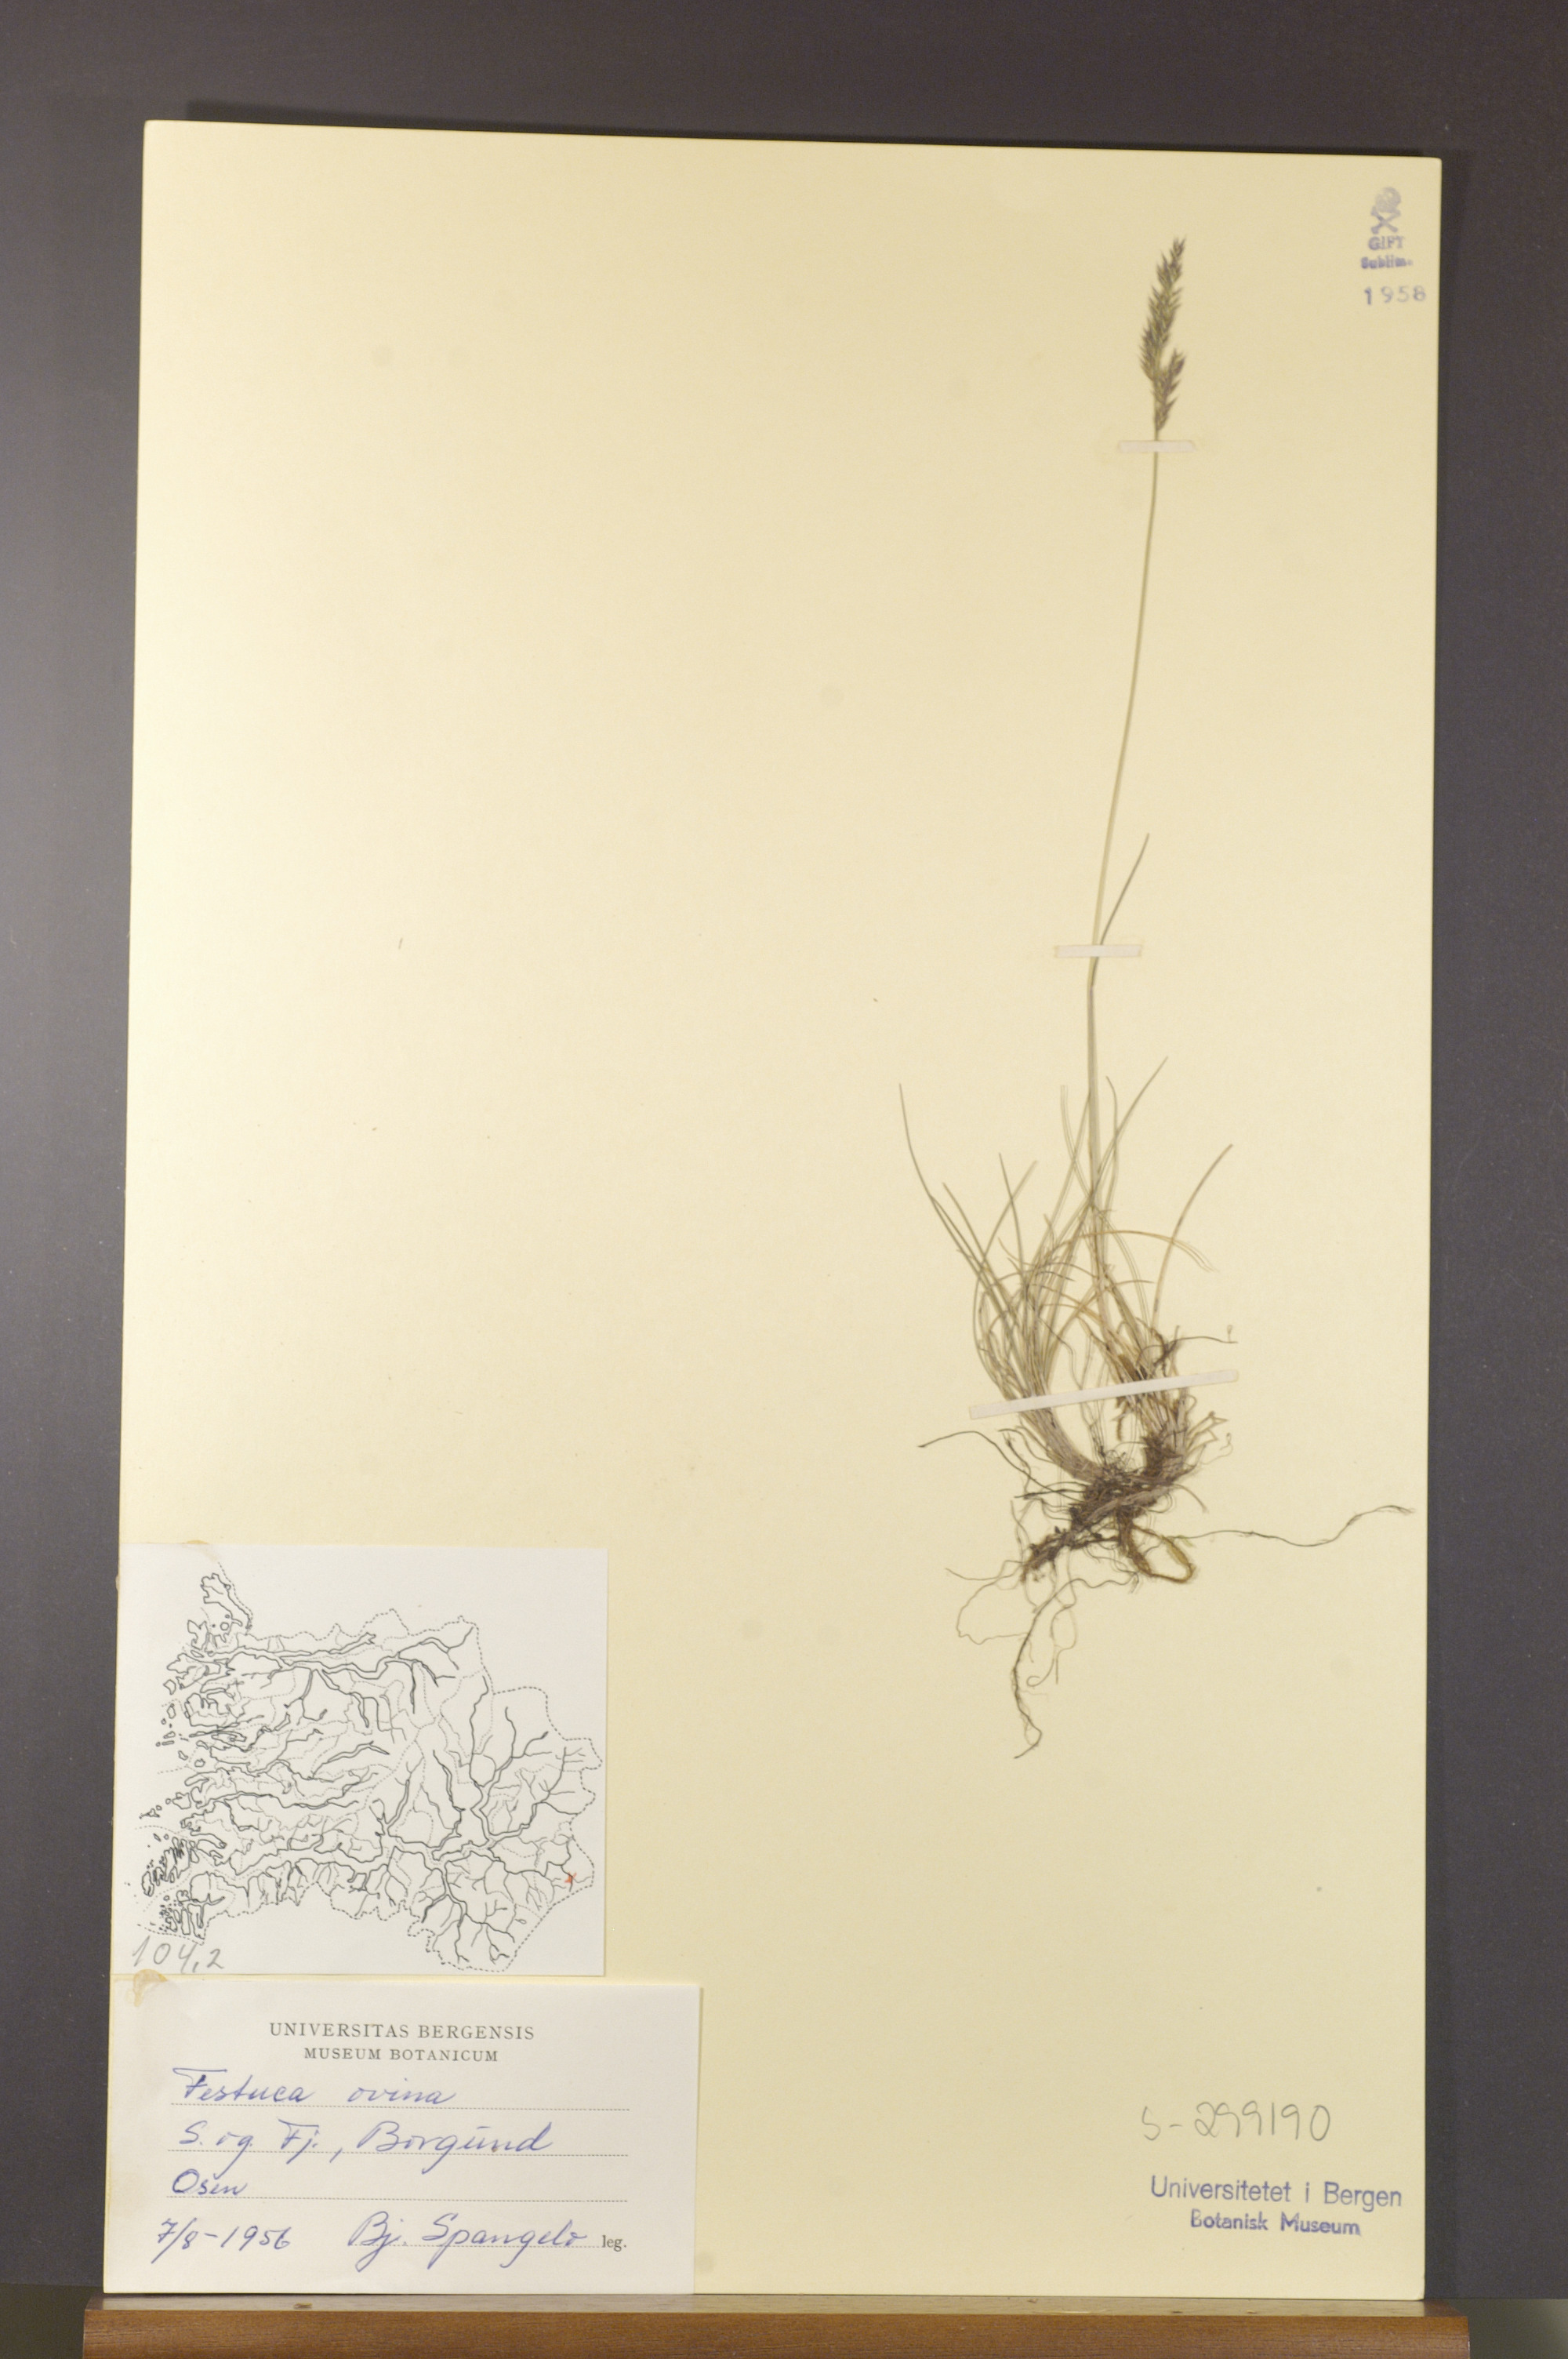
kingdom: Plantae
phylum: Tracheophyta
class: Liliopsida
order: Poales
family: Poaceae
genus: Festuca
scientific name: Festuca ovina
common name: Sheep fescue
